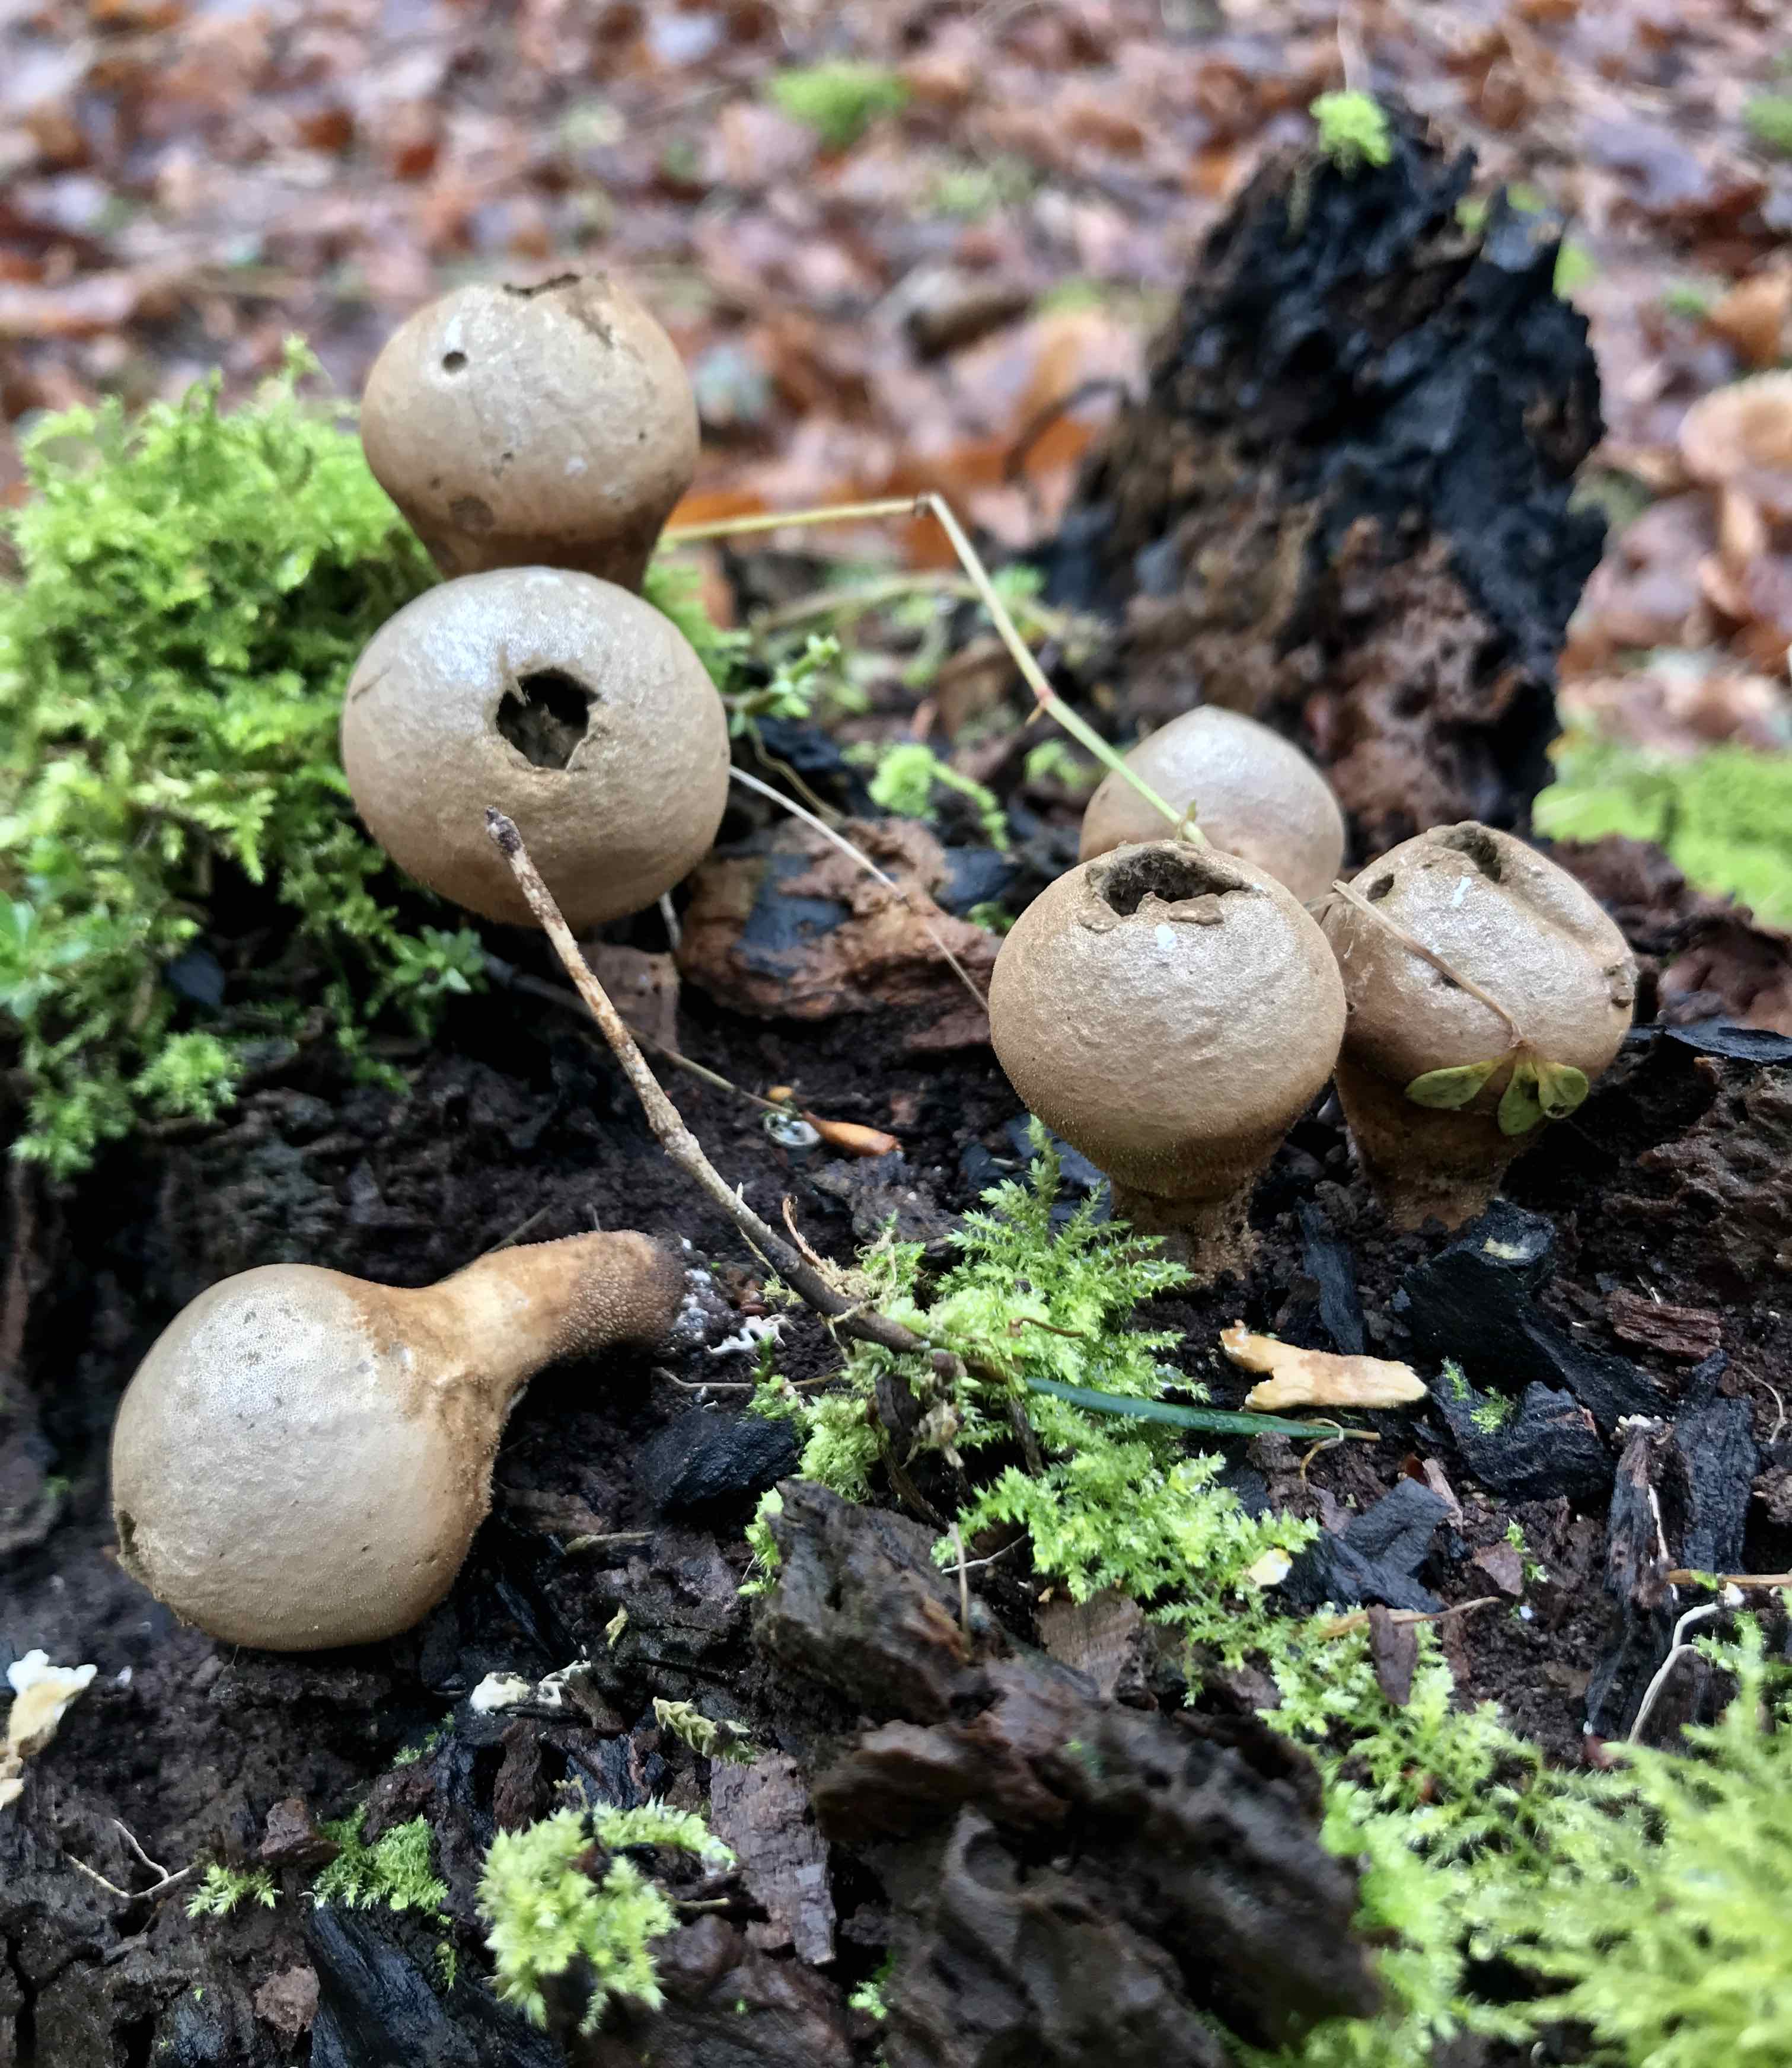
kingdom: Fungi
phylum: Basidiomycota
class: Agaricomycetes
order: Agaricales
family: Lycoperdaceae
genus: Apioperdon
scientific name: Apioperdon pyriforme
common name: pære-støvbold
